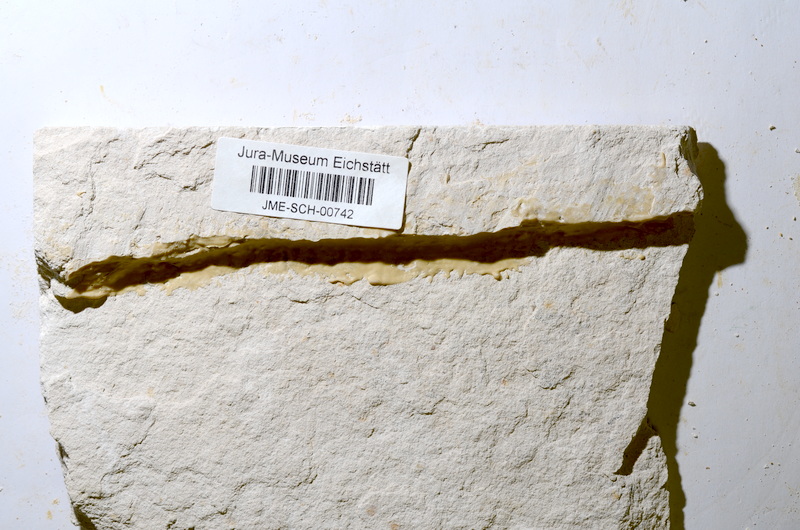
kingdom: Animalia
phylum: Chordata
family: Aspidorhynchidae
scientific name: Aspidorhynchidae
